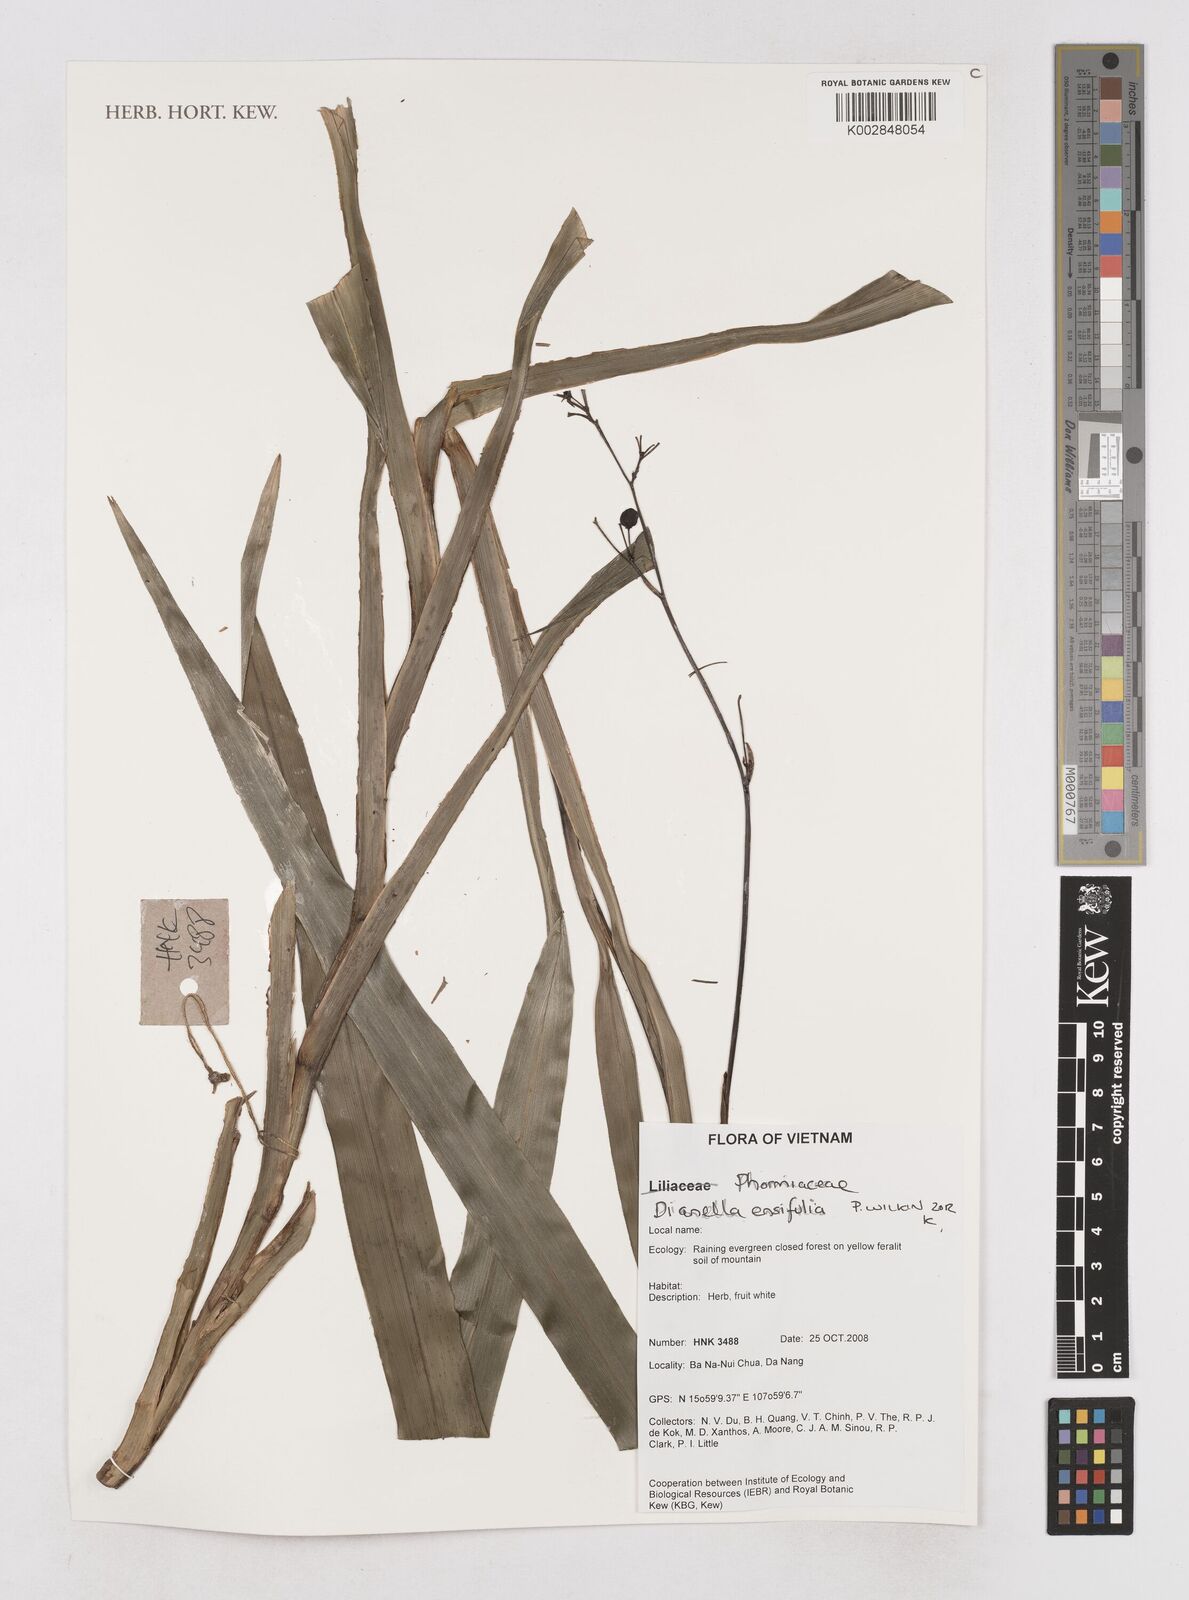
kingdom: Plantae
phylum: Tracheophyta
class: Liliopsida
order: Asparagales
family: Asphodelaceae
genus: Dianella
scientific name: Dianella ensifolia
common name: New zealand lilyplant
